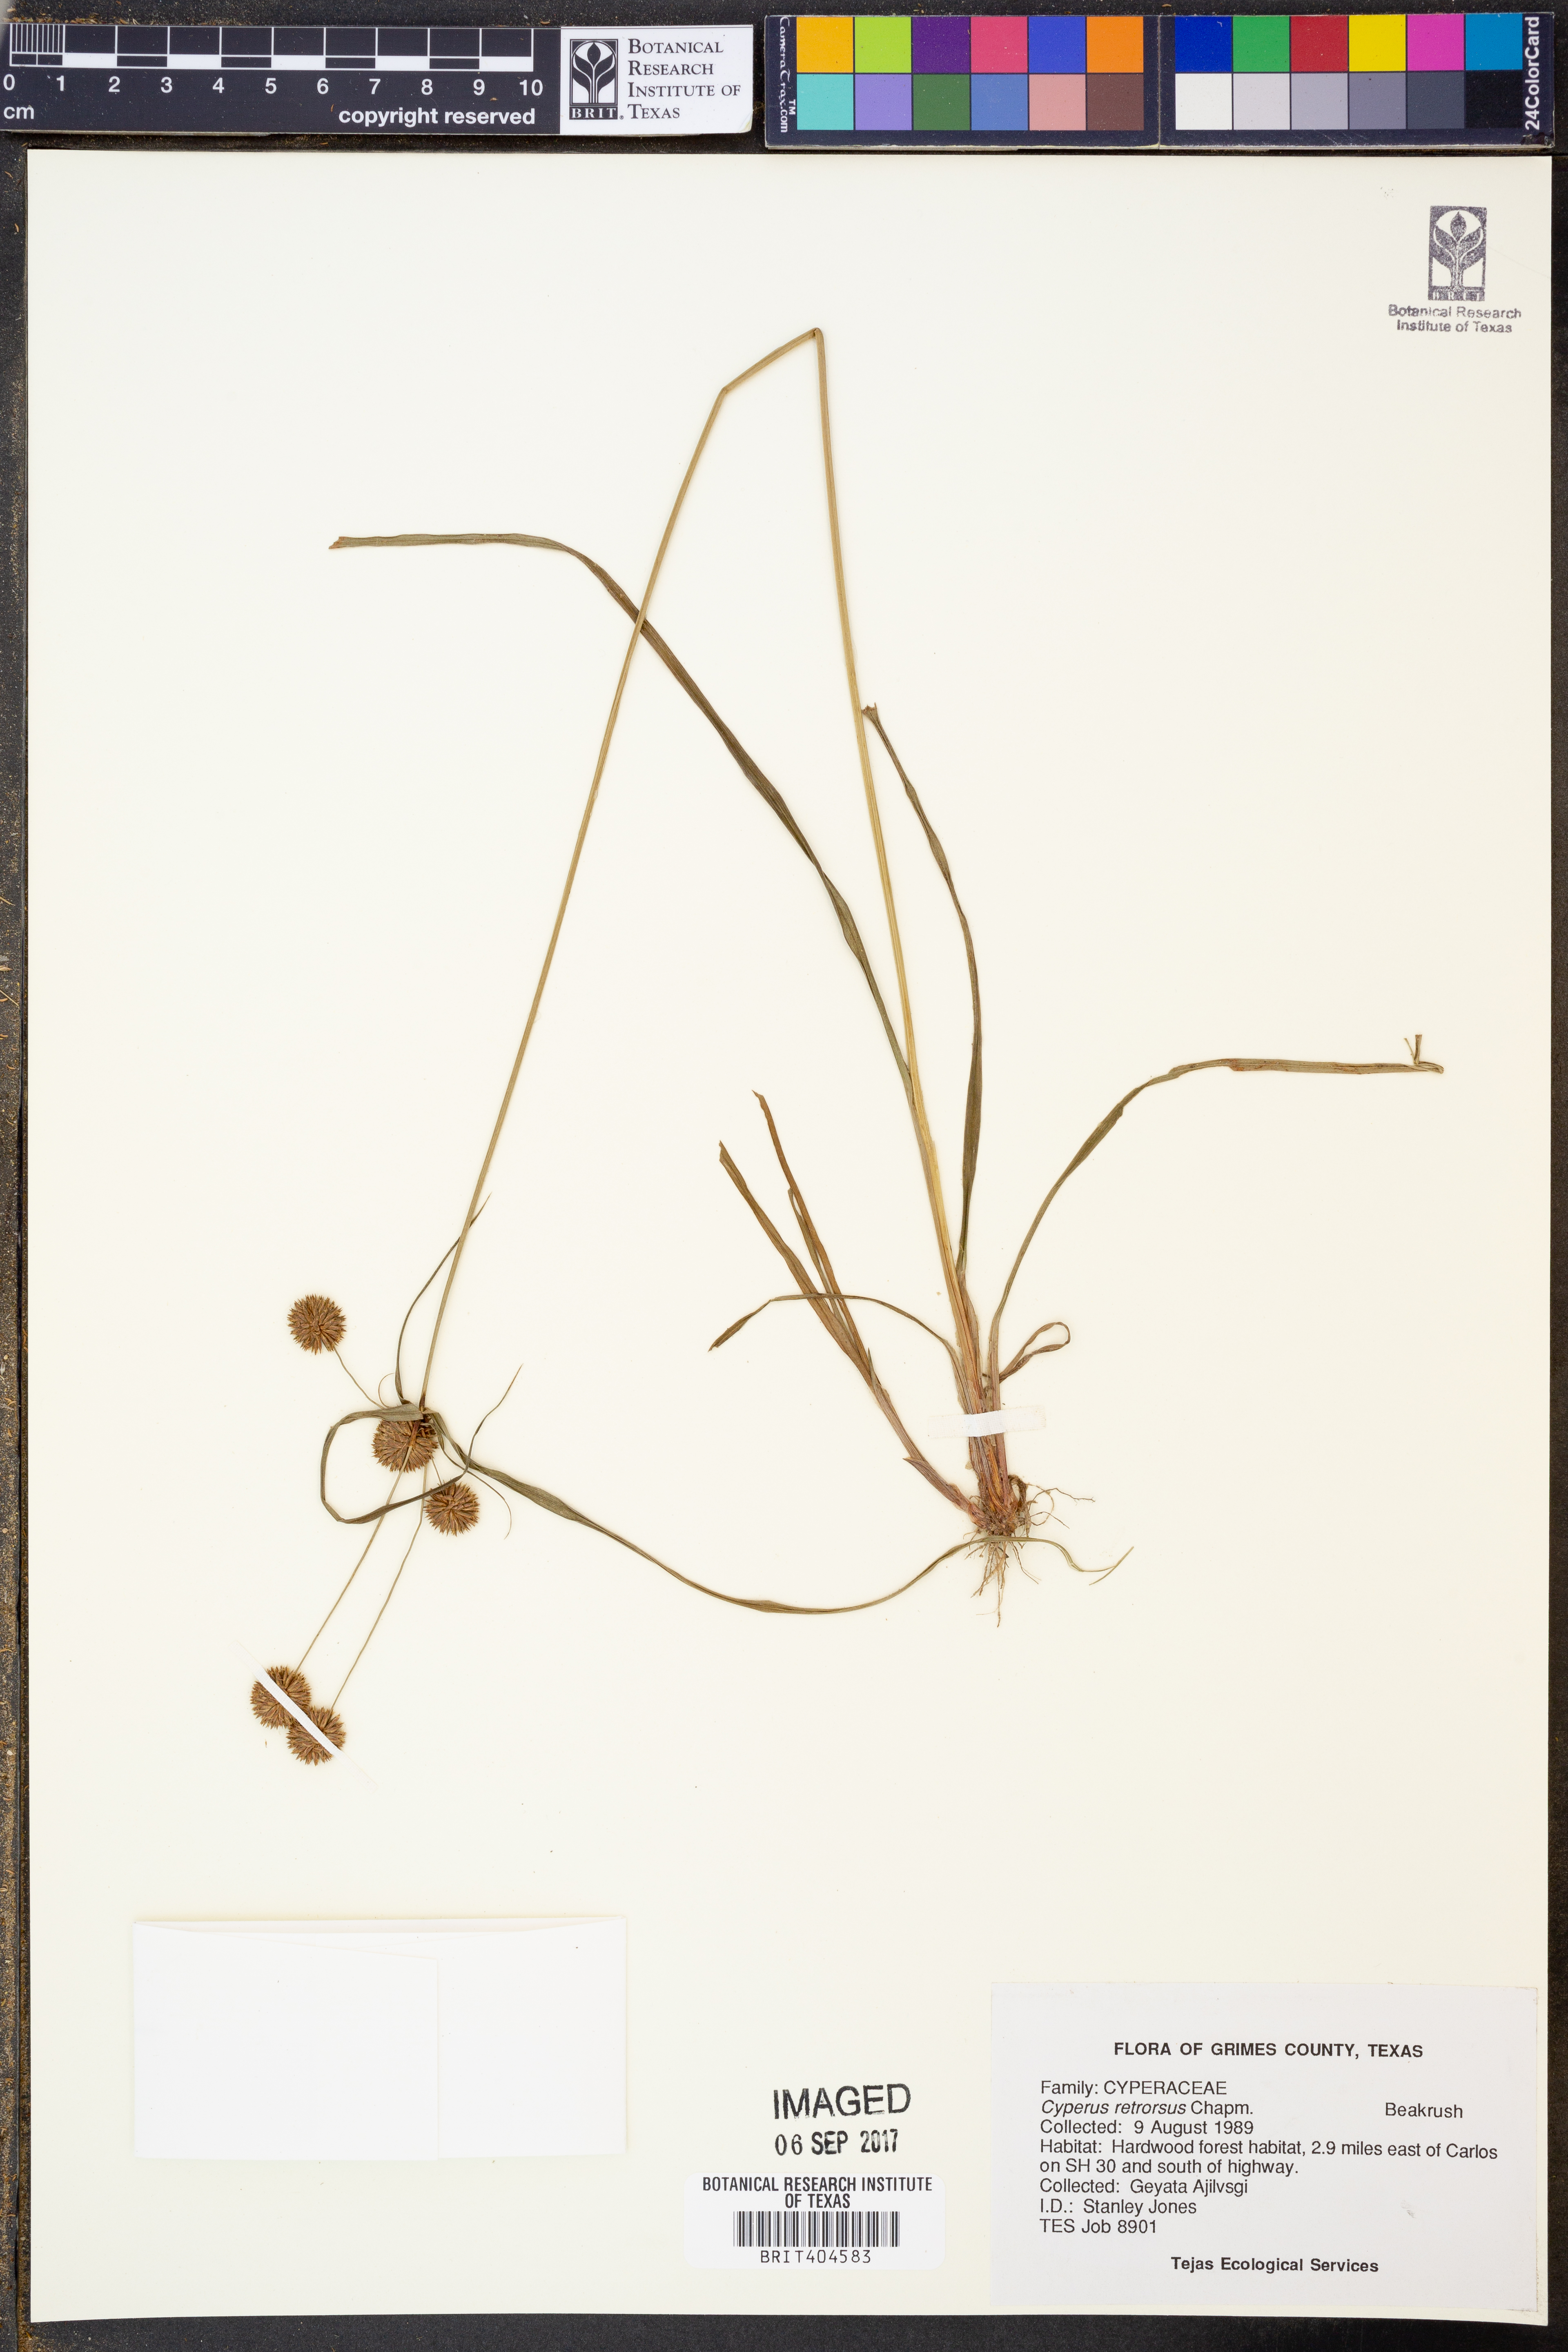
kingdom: Plantae
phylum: Tracheophyta
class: Liliopsida
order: Poales
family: Cyperaceae
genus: Cyperus
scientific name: Cyperus retrorsus
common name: Pinebarren flat sedge
